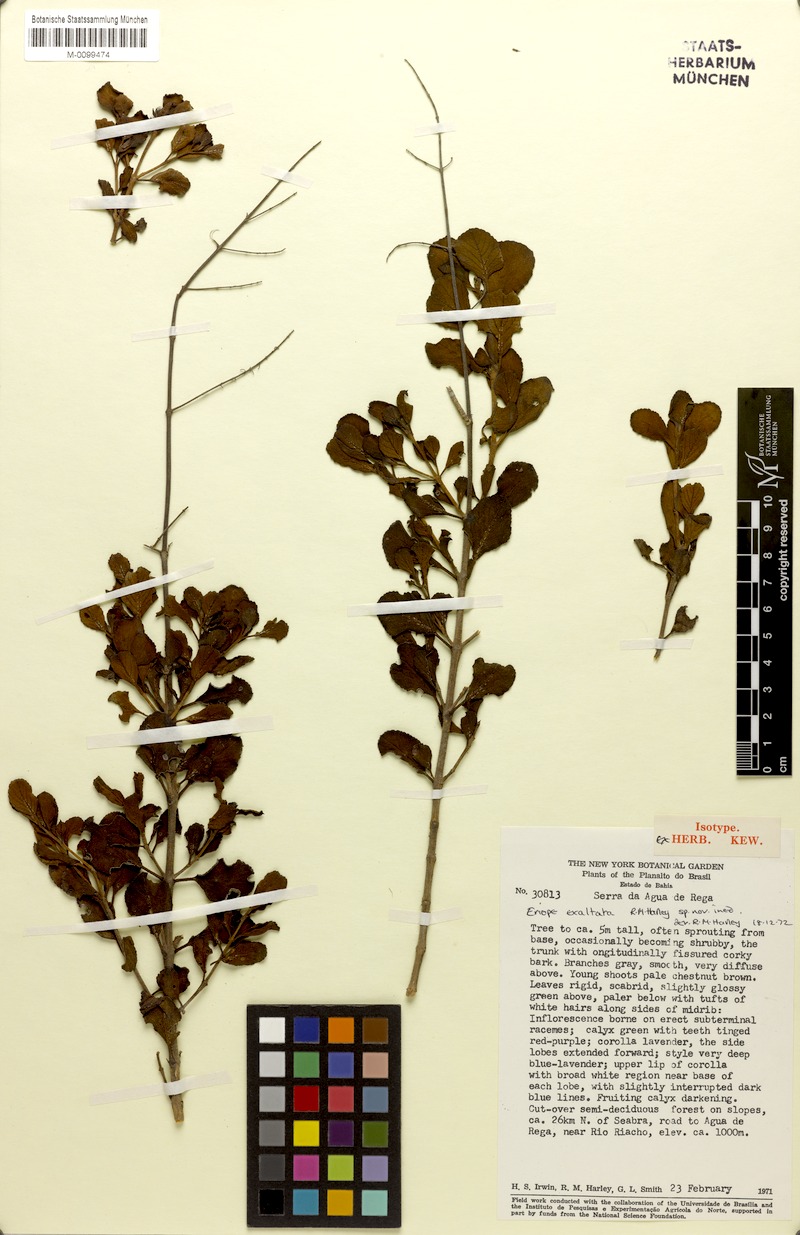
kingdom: Plantae
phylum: Tracheophyta
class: Magnoliopsida
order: Lamiales
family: Lamiaceae
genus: Eriope
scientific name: Eriope exaltata
